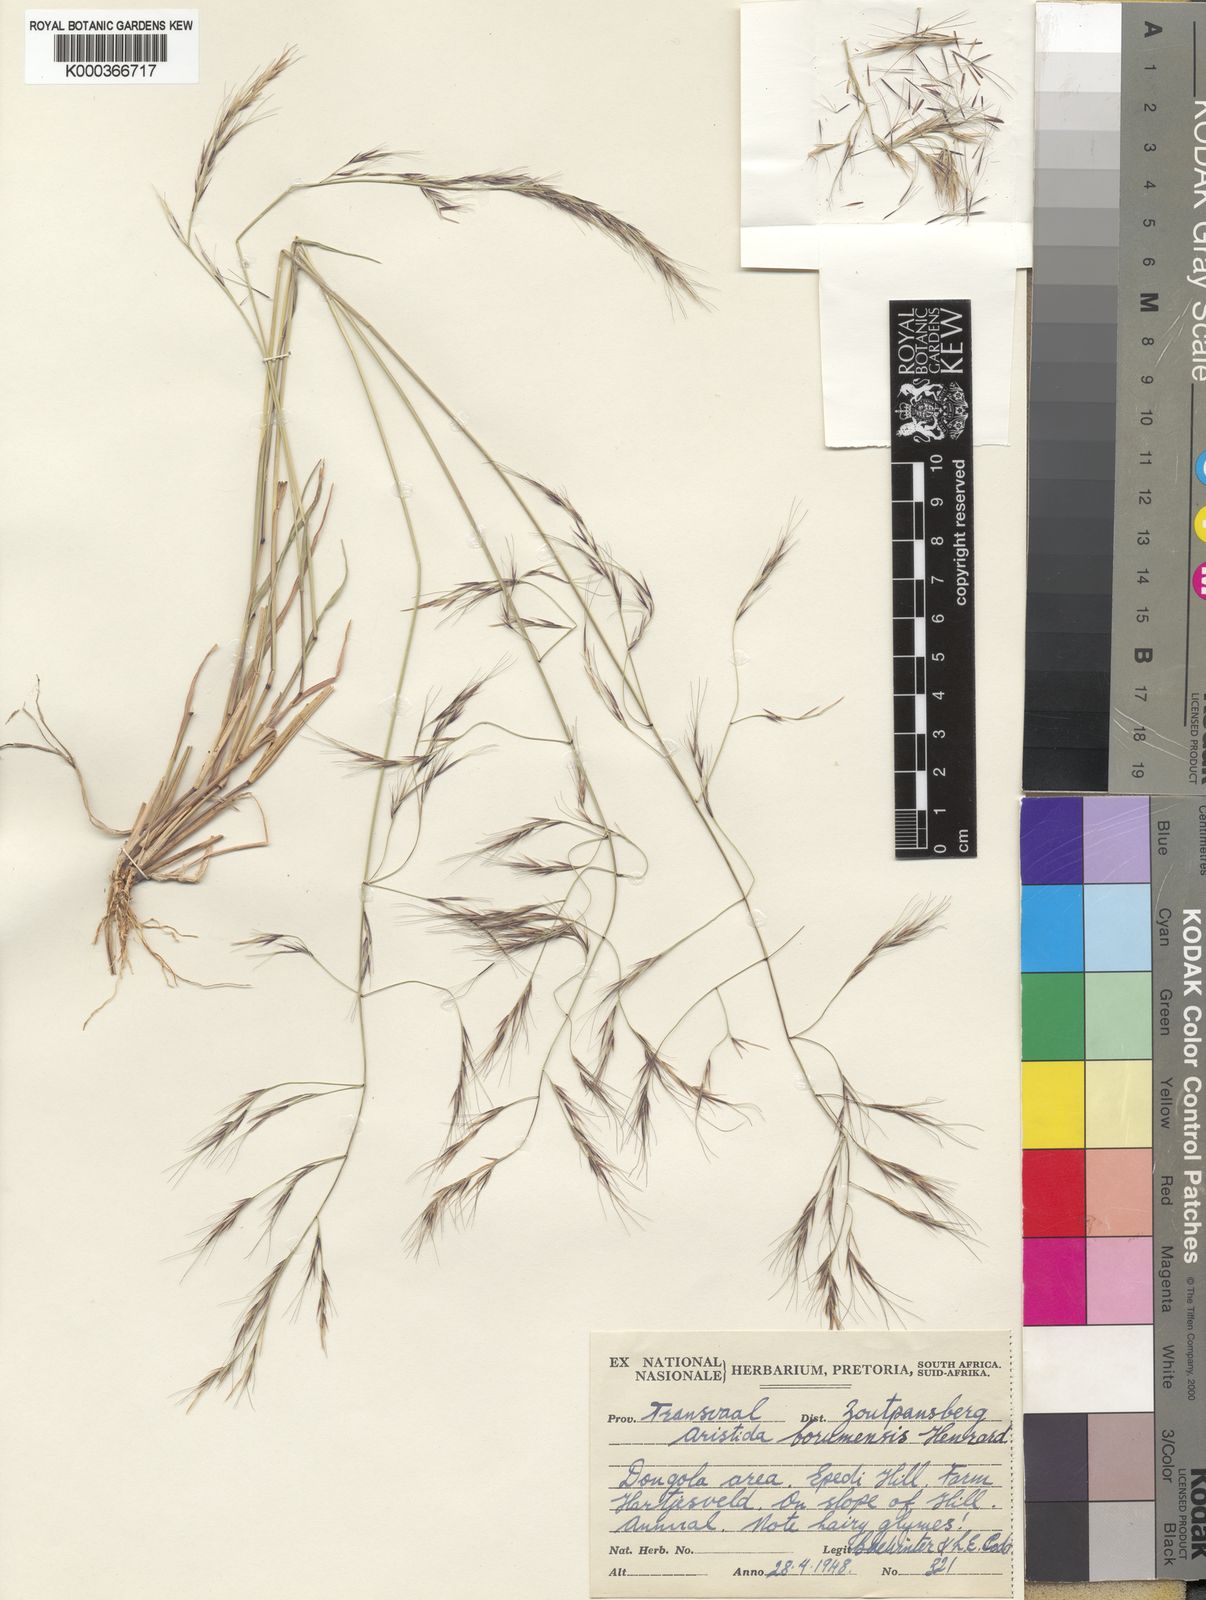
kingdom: Plantae
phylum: Tracheophyta
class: Liliopsida
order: Poales
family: Poaceae
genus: Aristida
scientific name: Aristida scabrivalvis
